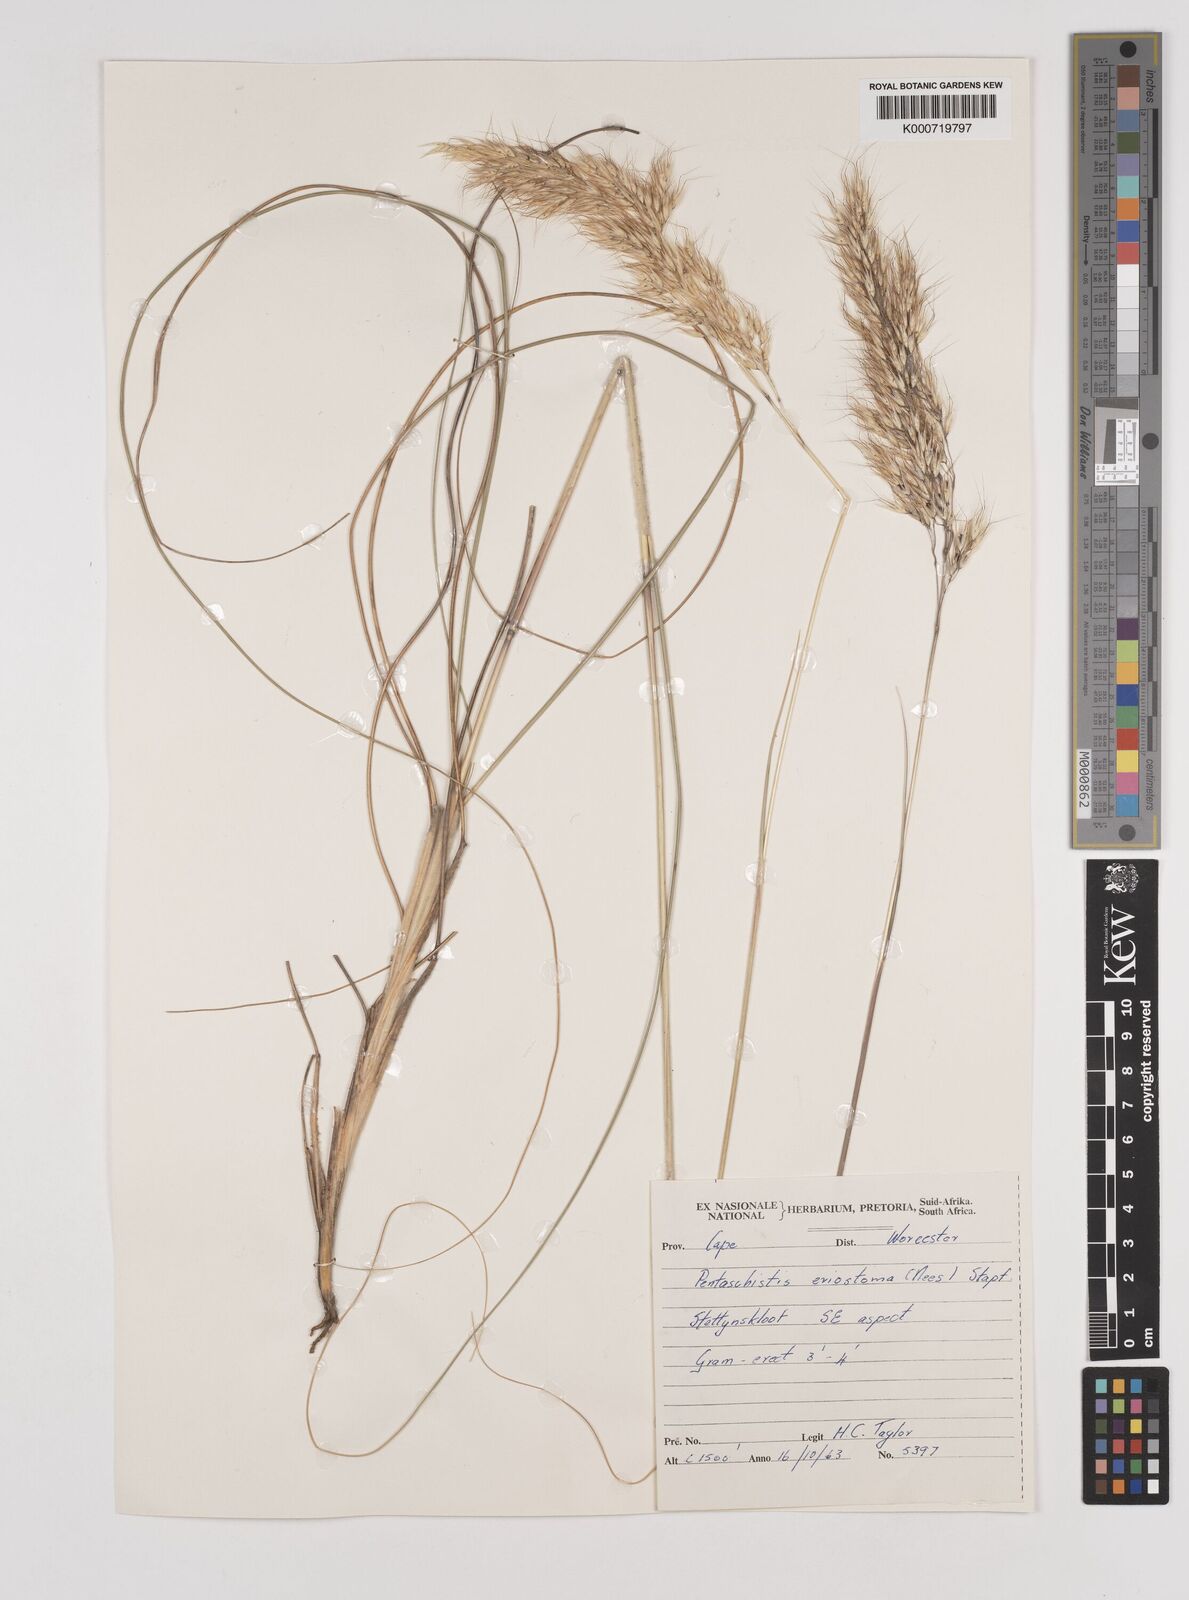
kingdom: Plantae
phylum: Tracheophyta
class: Liliopsida
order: Poales
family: Poaceae
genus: Pentameris
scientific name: Pentameris eriostoma
